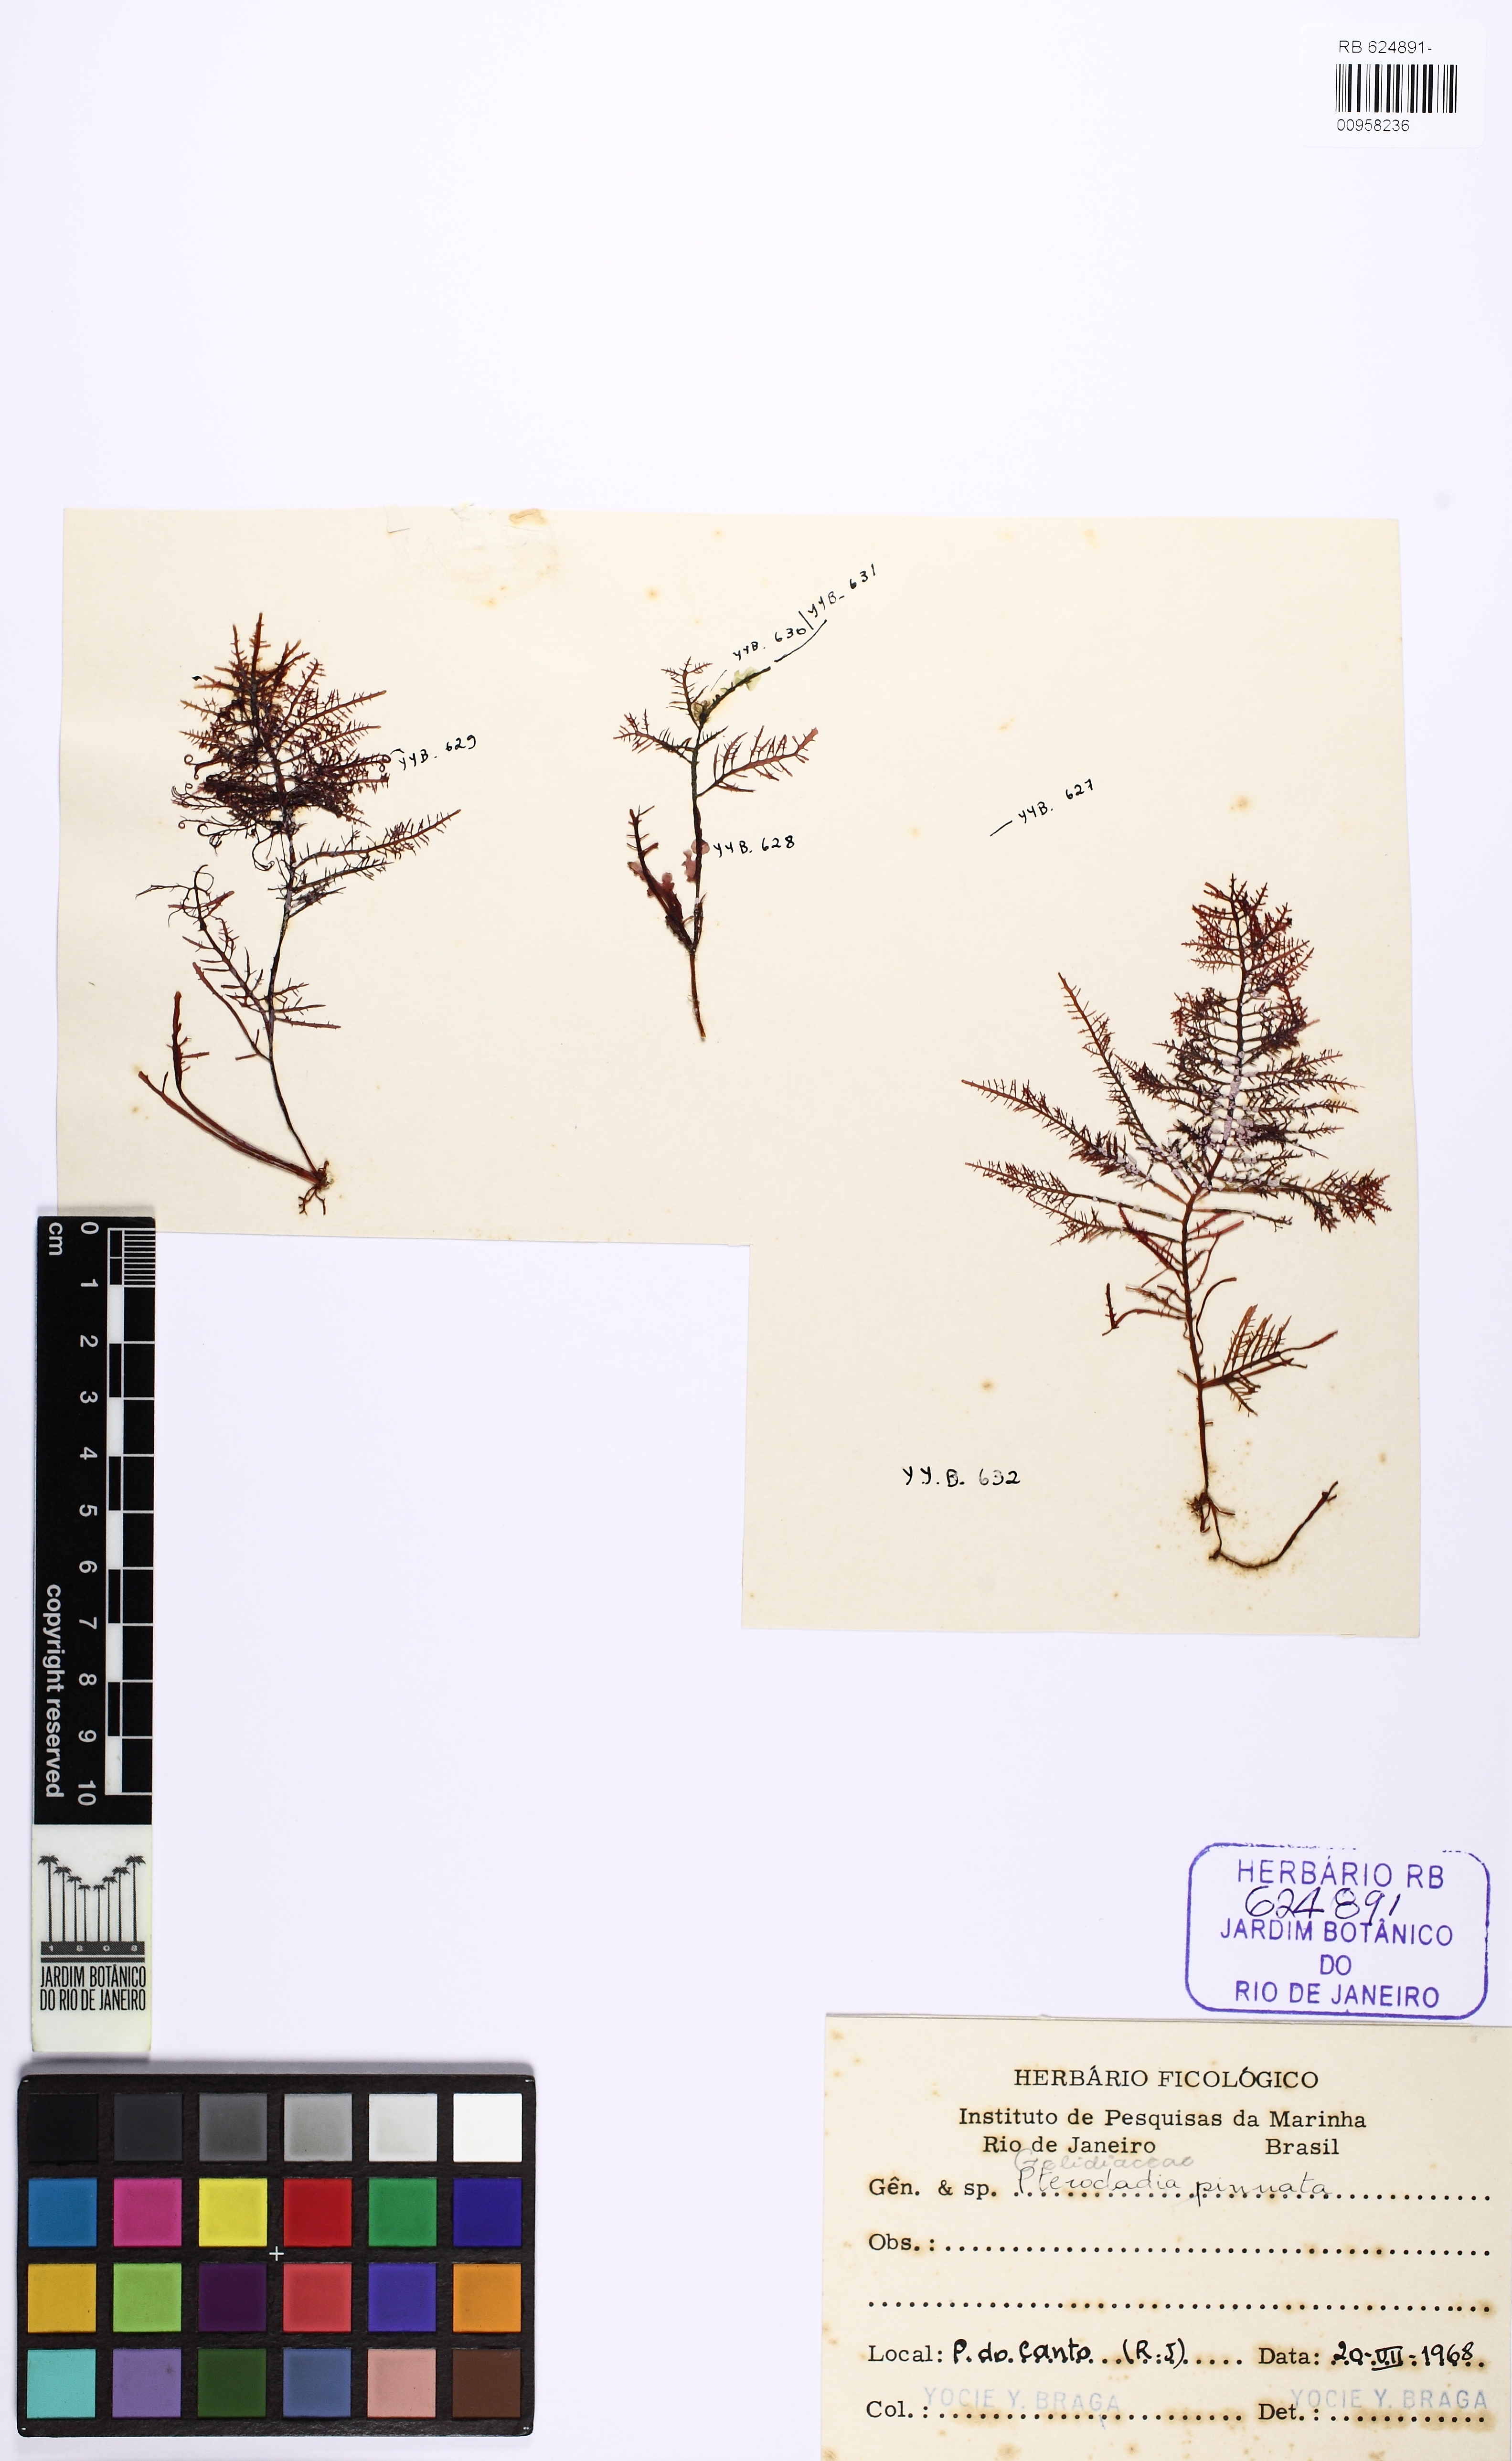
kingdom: Plantae
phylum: Rhodophyta
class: Florideophyceae
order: Gelidiales
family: Pterocladiaceae
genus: Pterocladiella
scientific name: Pterocladiella capillacea
